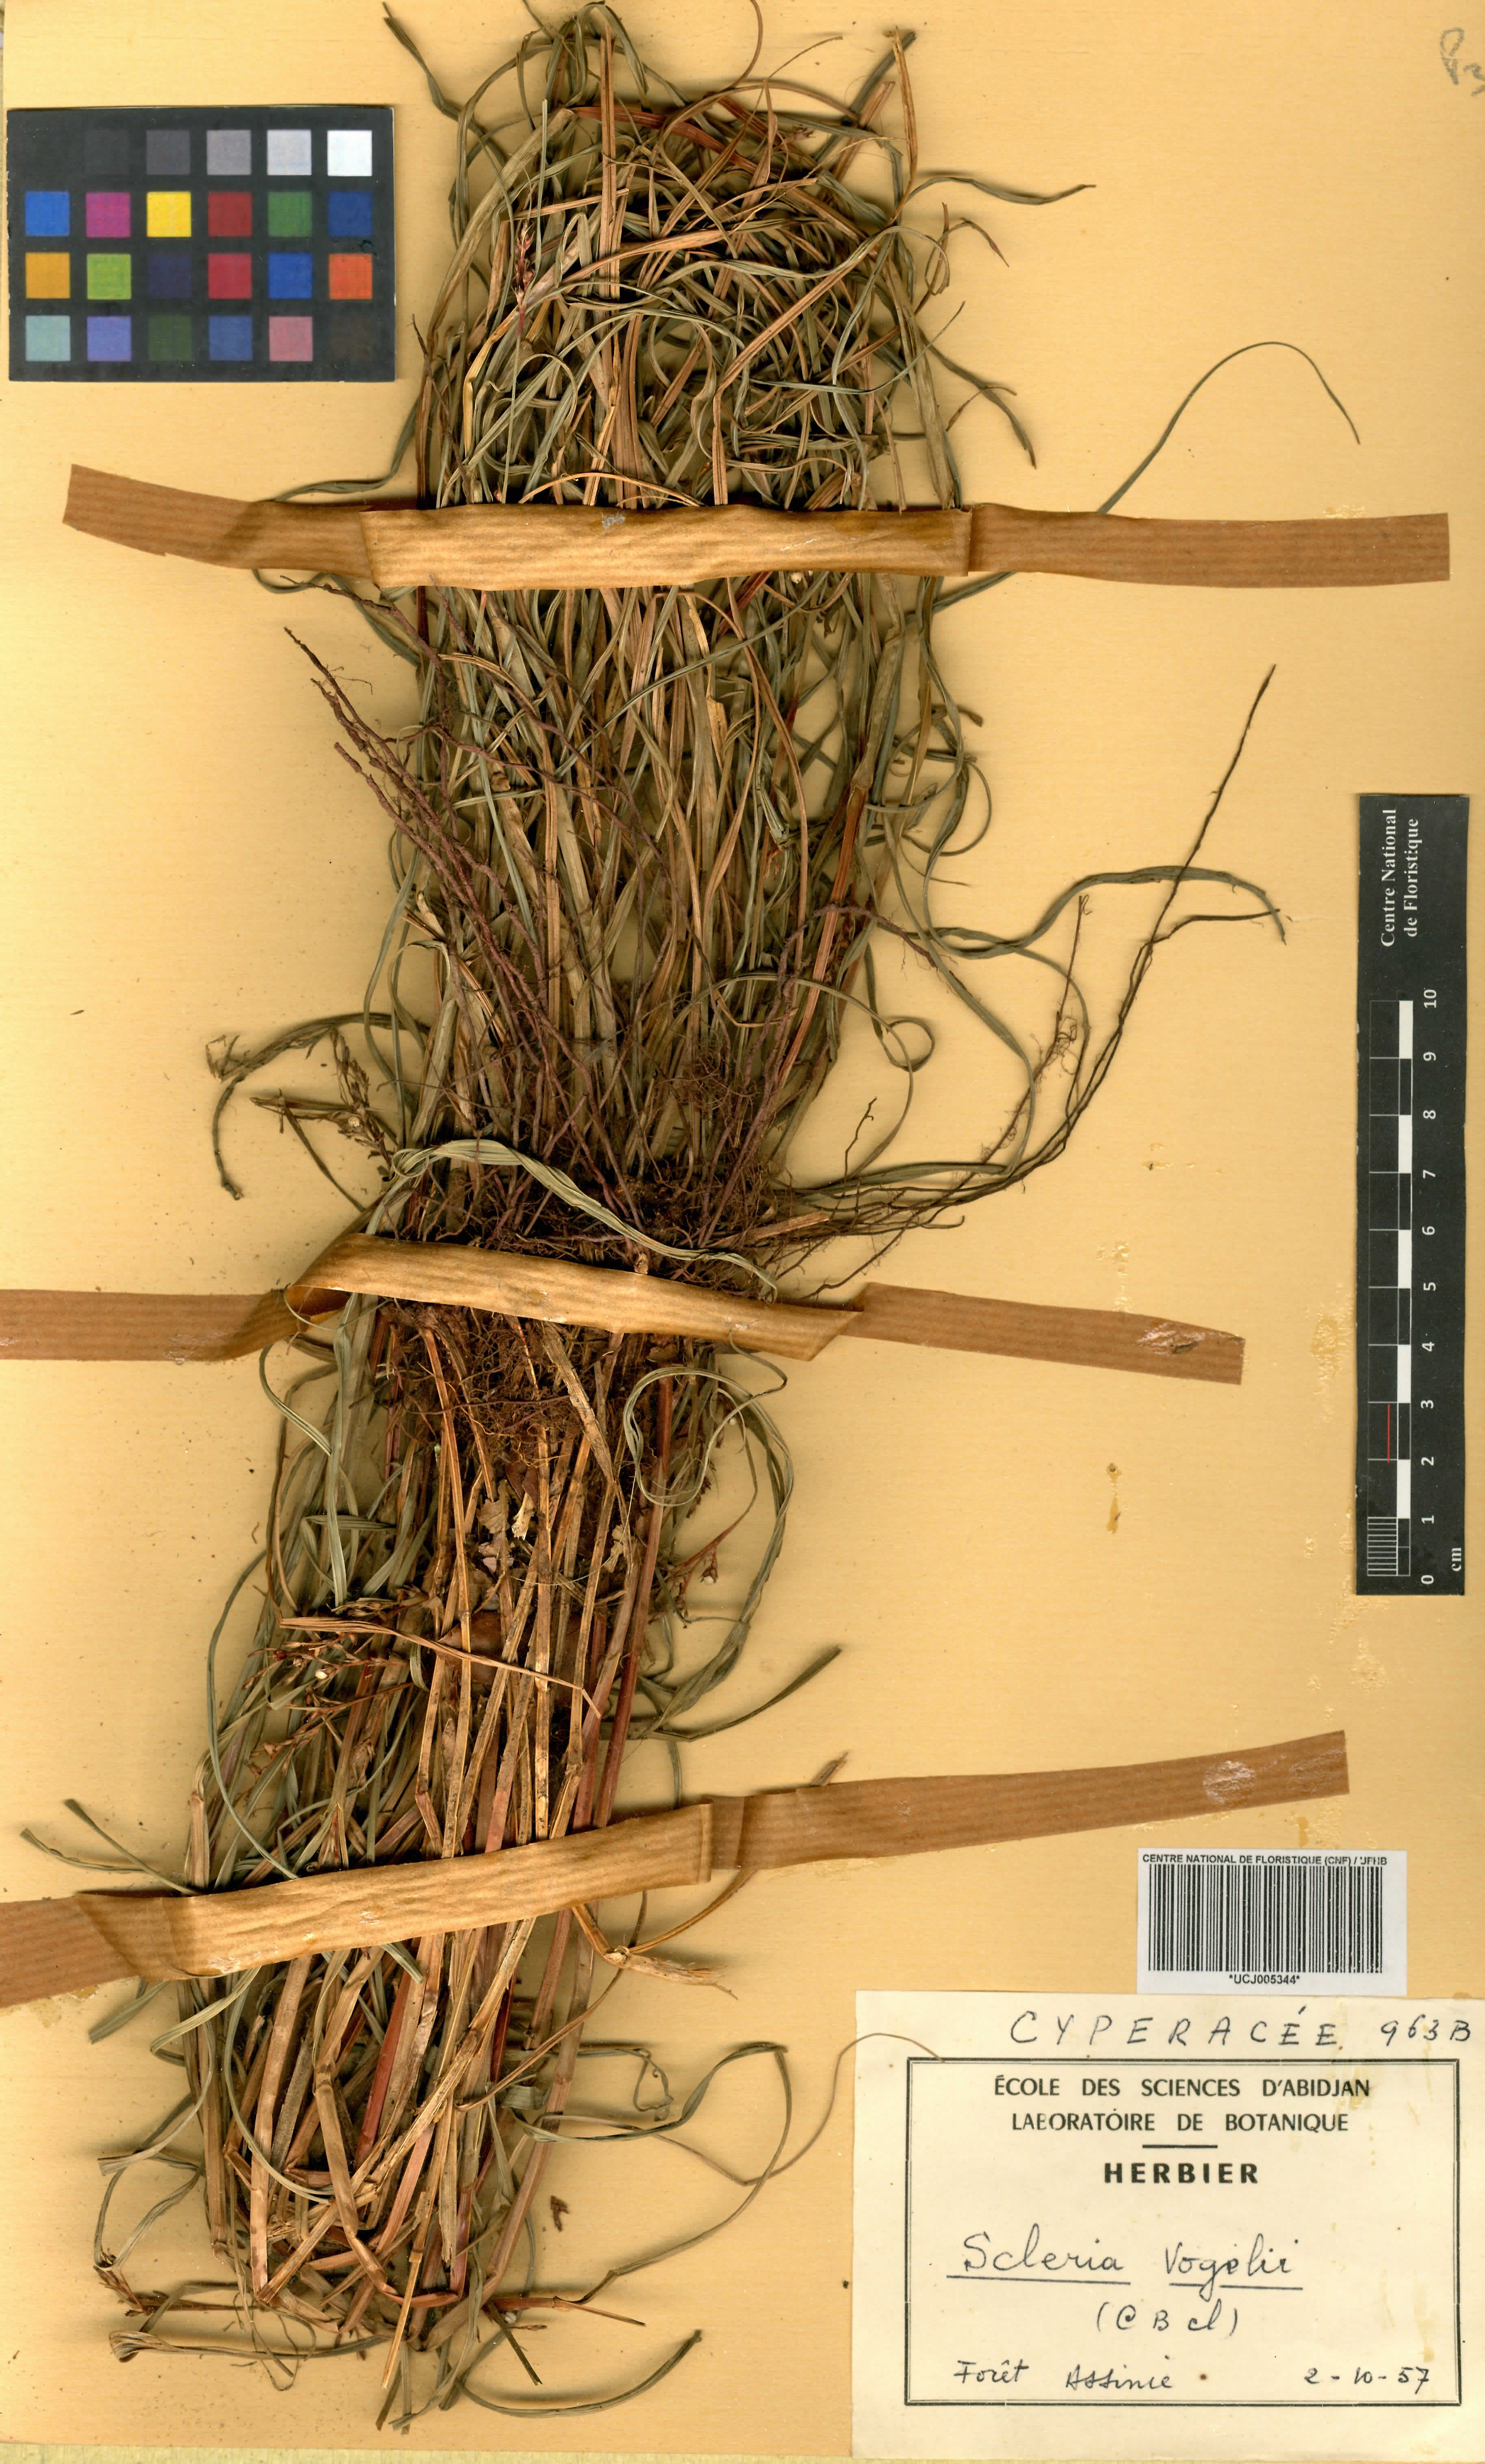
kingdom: Plantae
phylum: Tracheophyta
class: Liliopsida
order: Poales
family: Cyperaceae
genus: Scleria
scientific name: Scleria vogelii
